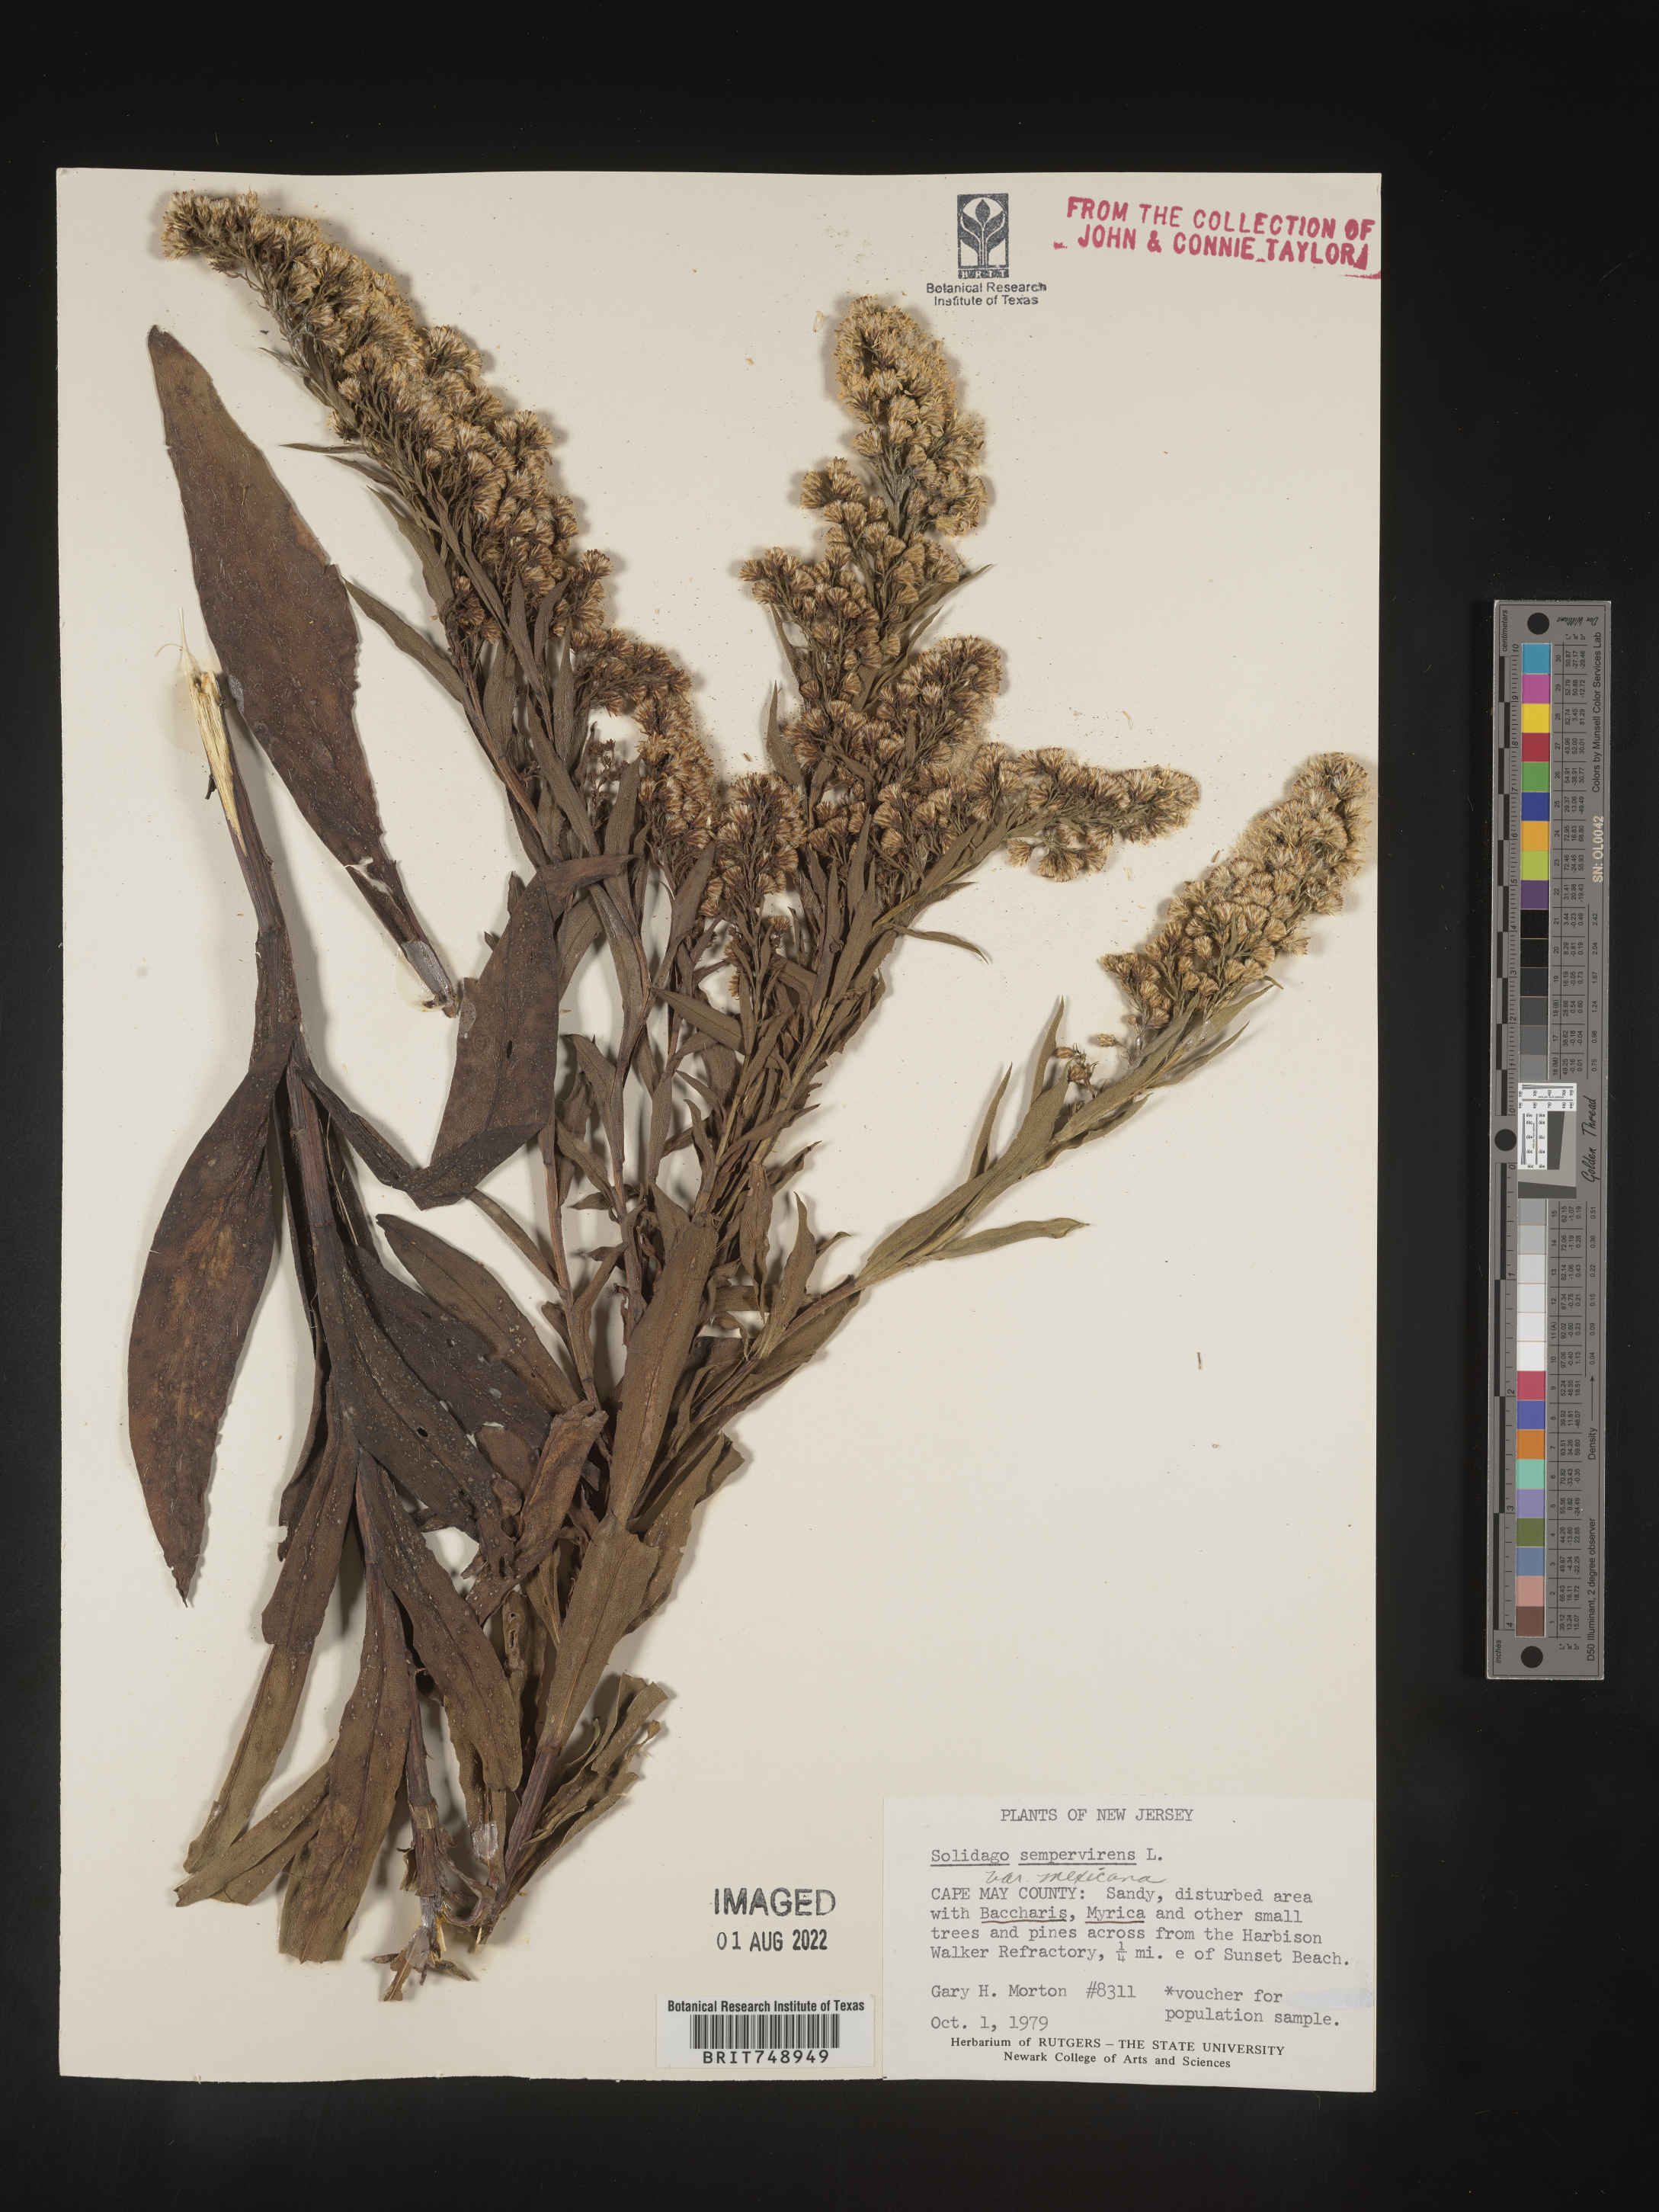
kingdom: Plantae
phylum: Tracheophyta
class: Magnoliopsida
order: Asterales
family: Asteraceae
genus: Solidago
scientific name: Solidago sempervirens
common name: Salt-marsh goldenrod
